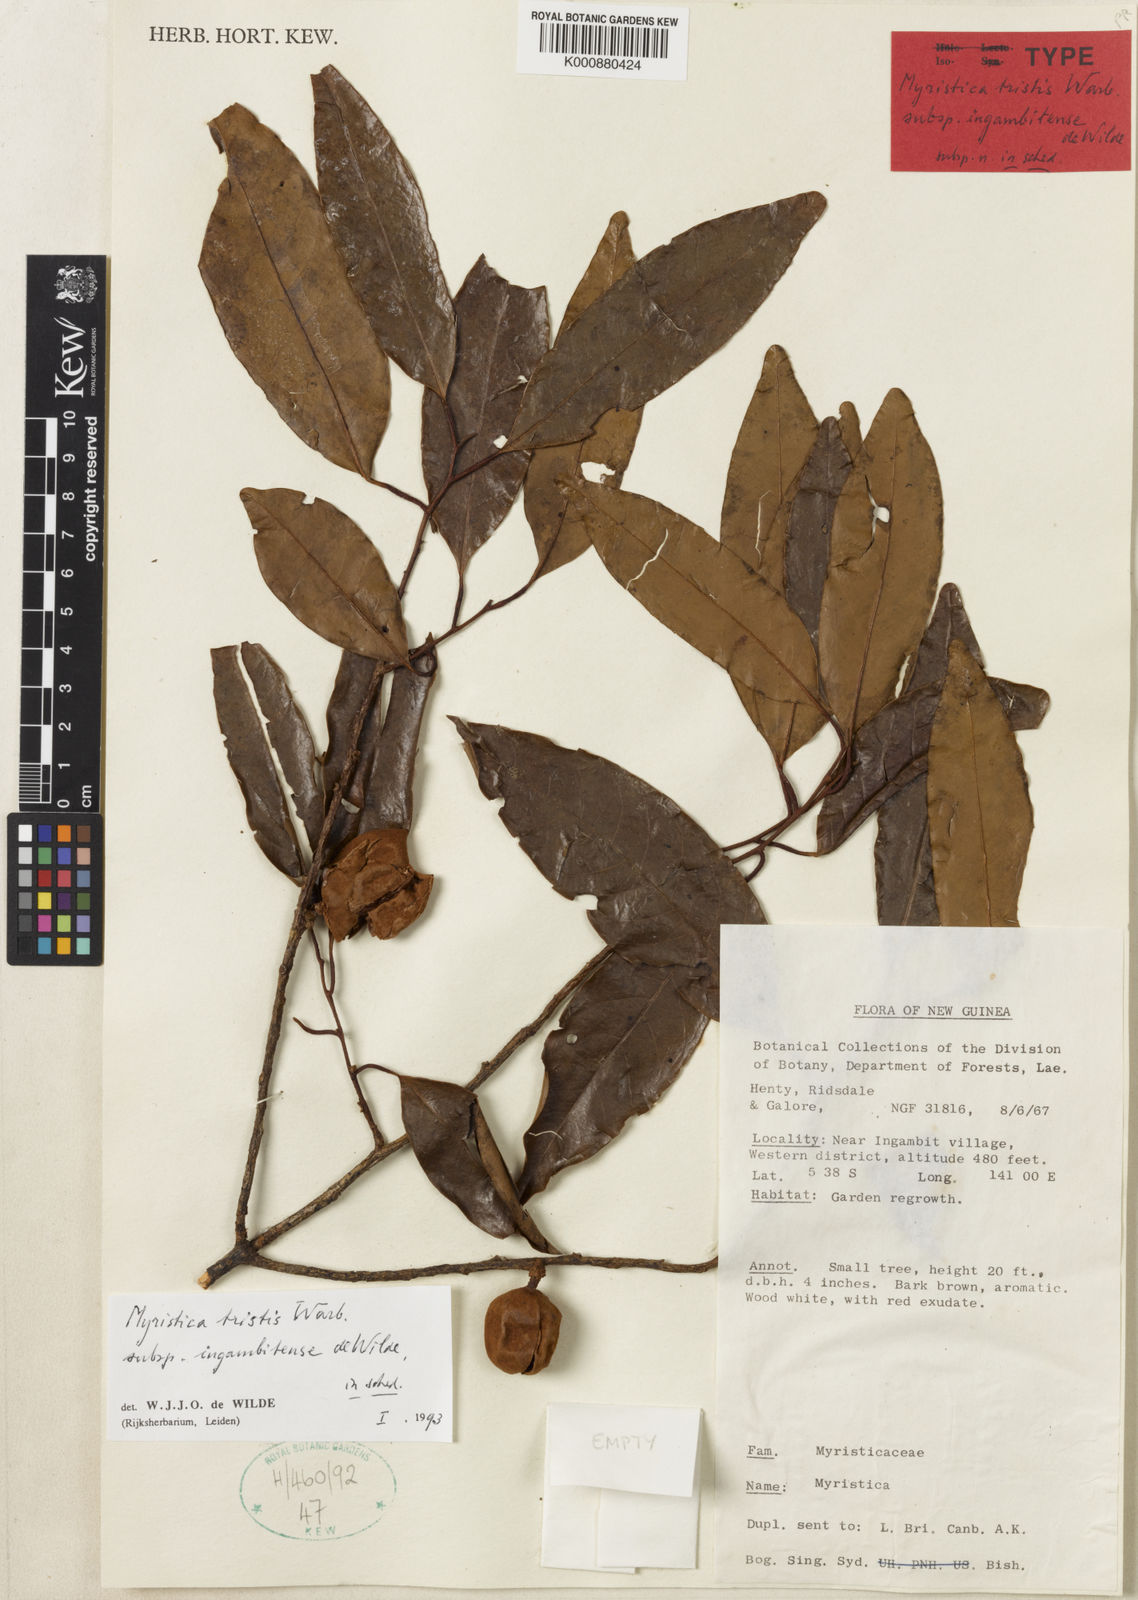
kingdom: Plantae
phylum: Tracheophyta
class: Magnoliopsida
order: Magnoliales
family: Myristicaceae
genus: Myristica
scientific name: Myristica tristis
